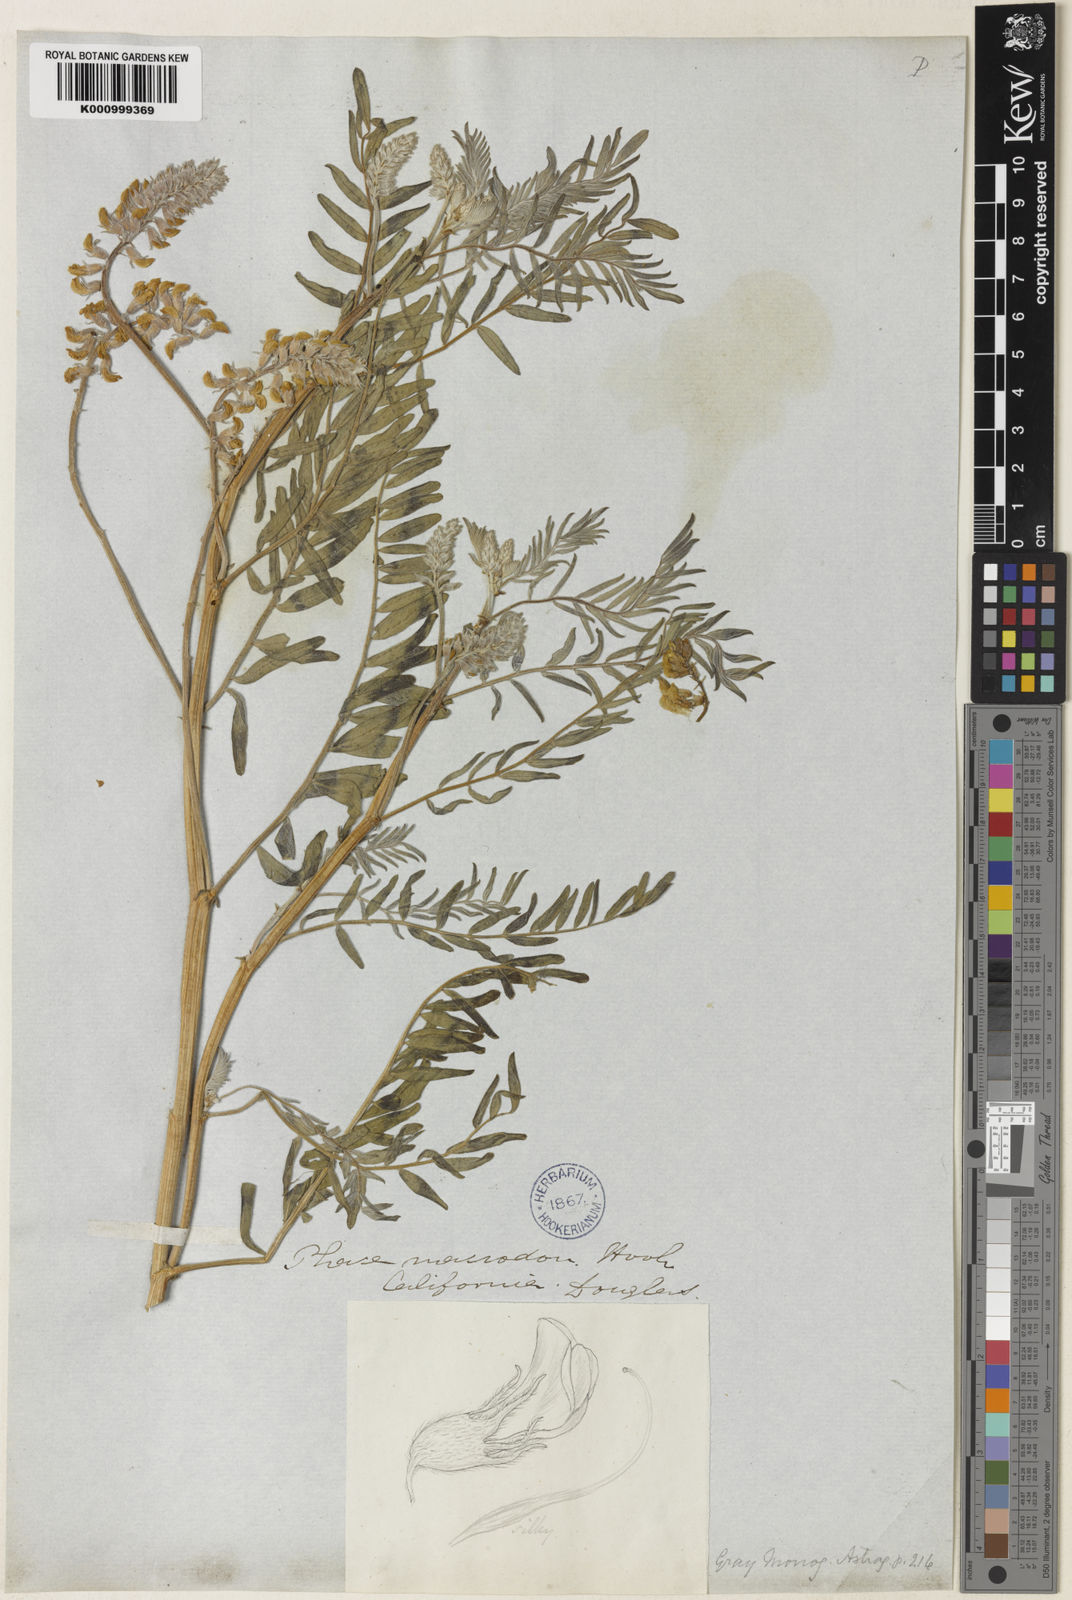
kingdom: Plantae
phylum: Tracheophyta
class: Magnoliopsida
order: Fabales
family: Fabaceae
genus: Astragalus
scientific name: Astragalus macrodon
